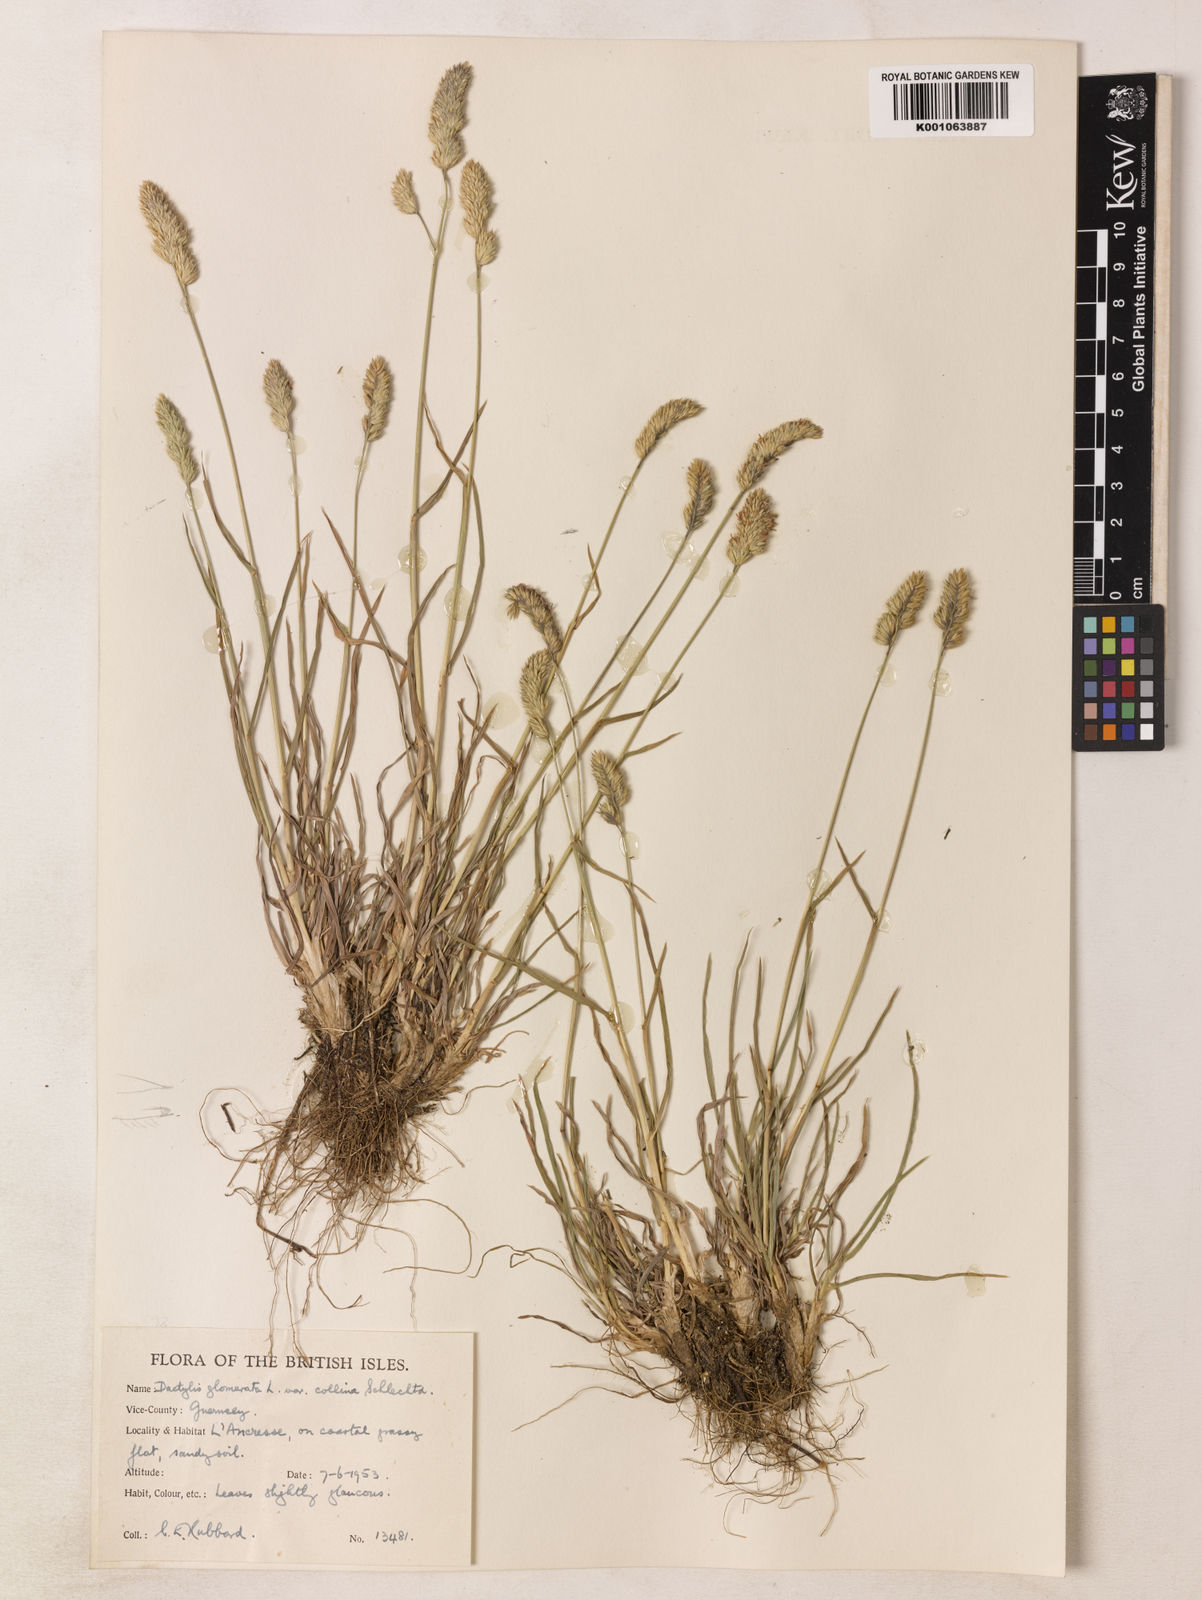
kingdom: Plantae
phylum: Tracheophyta
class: Liliopsida
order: Poales
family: Poaceae
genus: Dactylis
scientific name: Dactylis glomerata
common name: Orchardgrass
